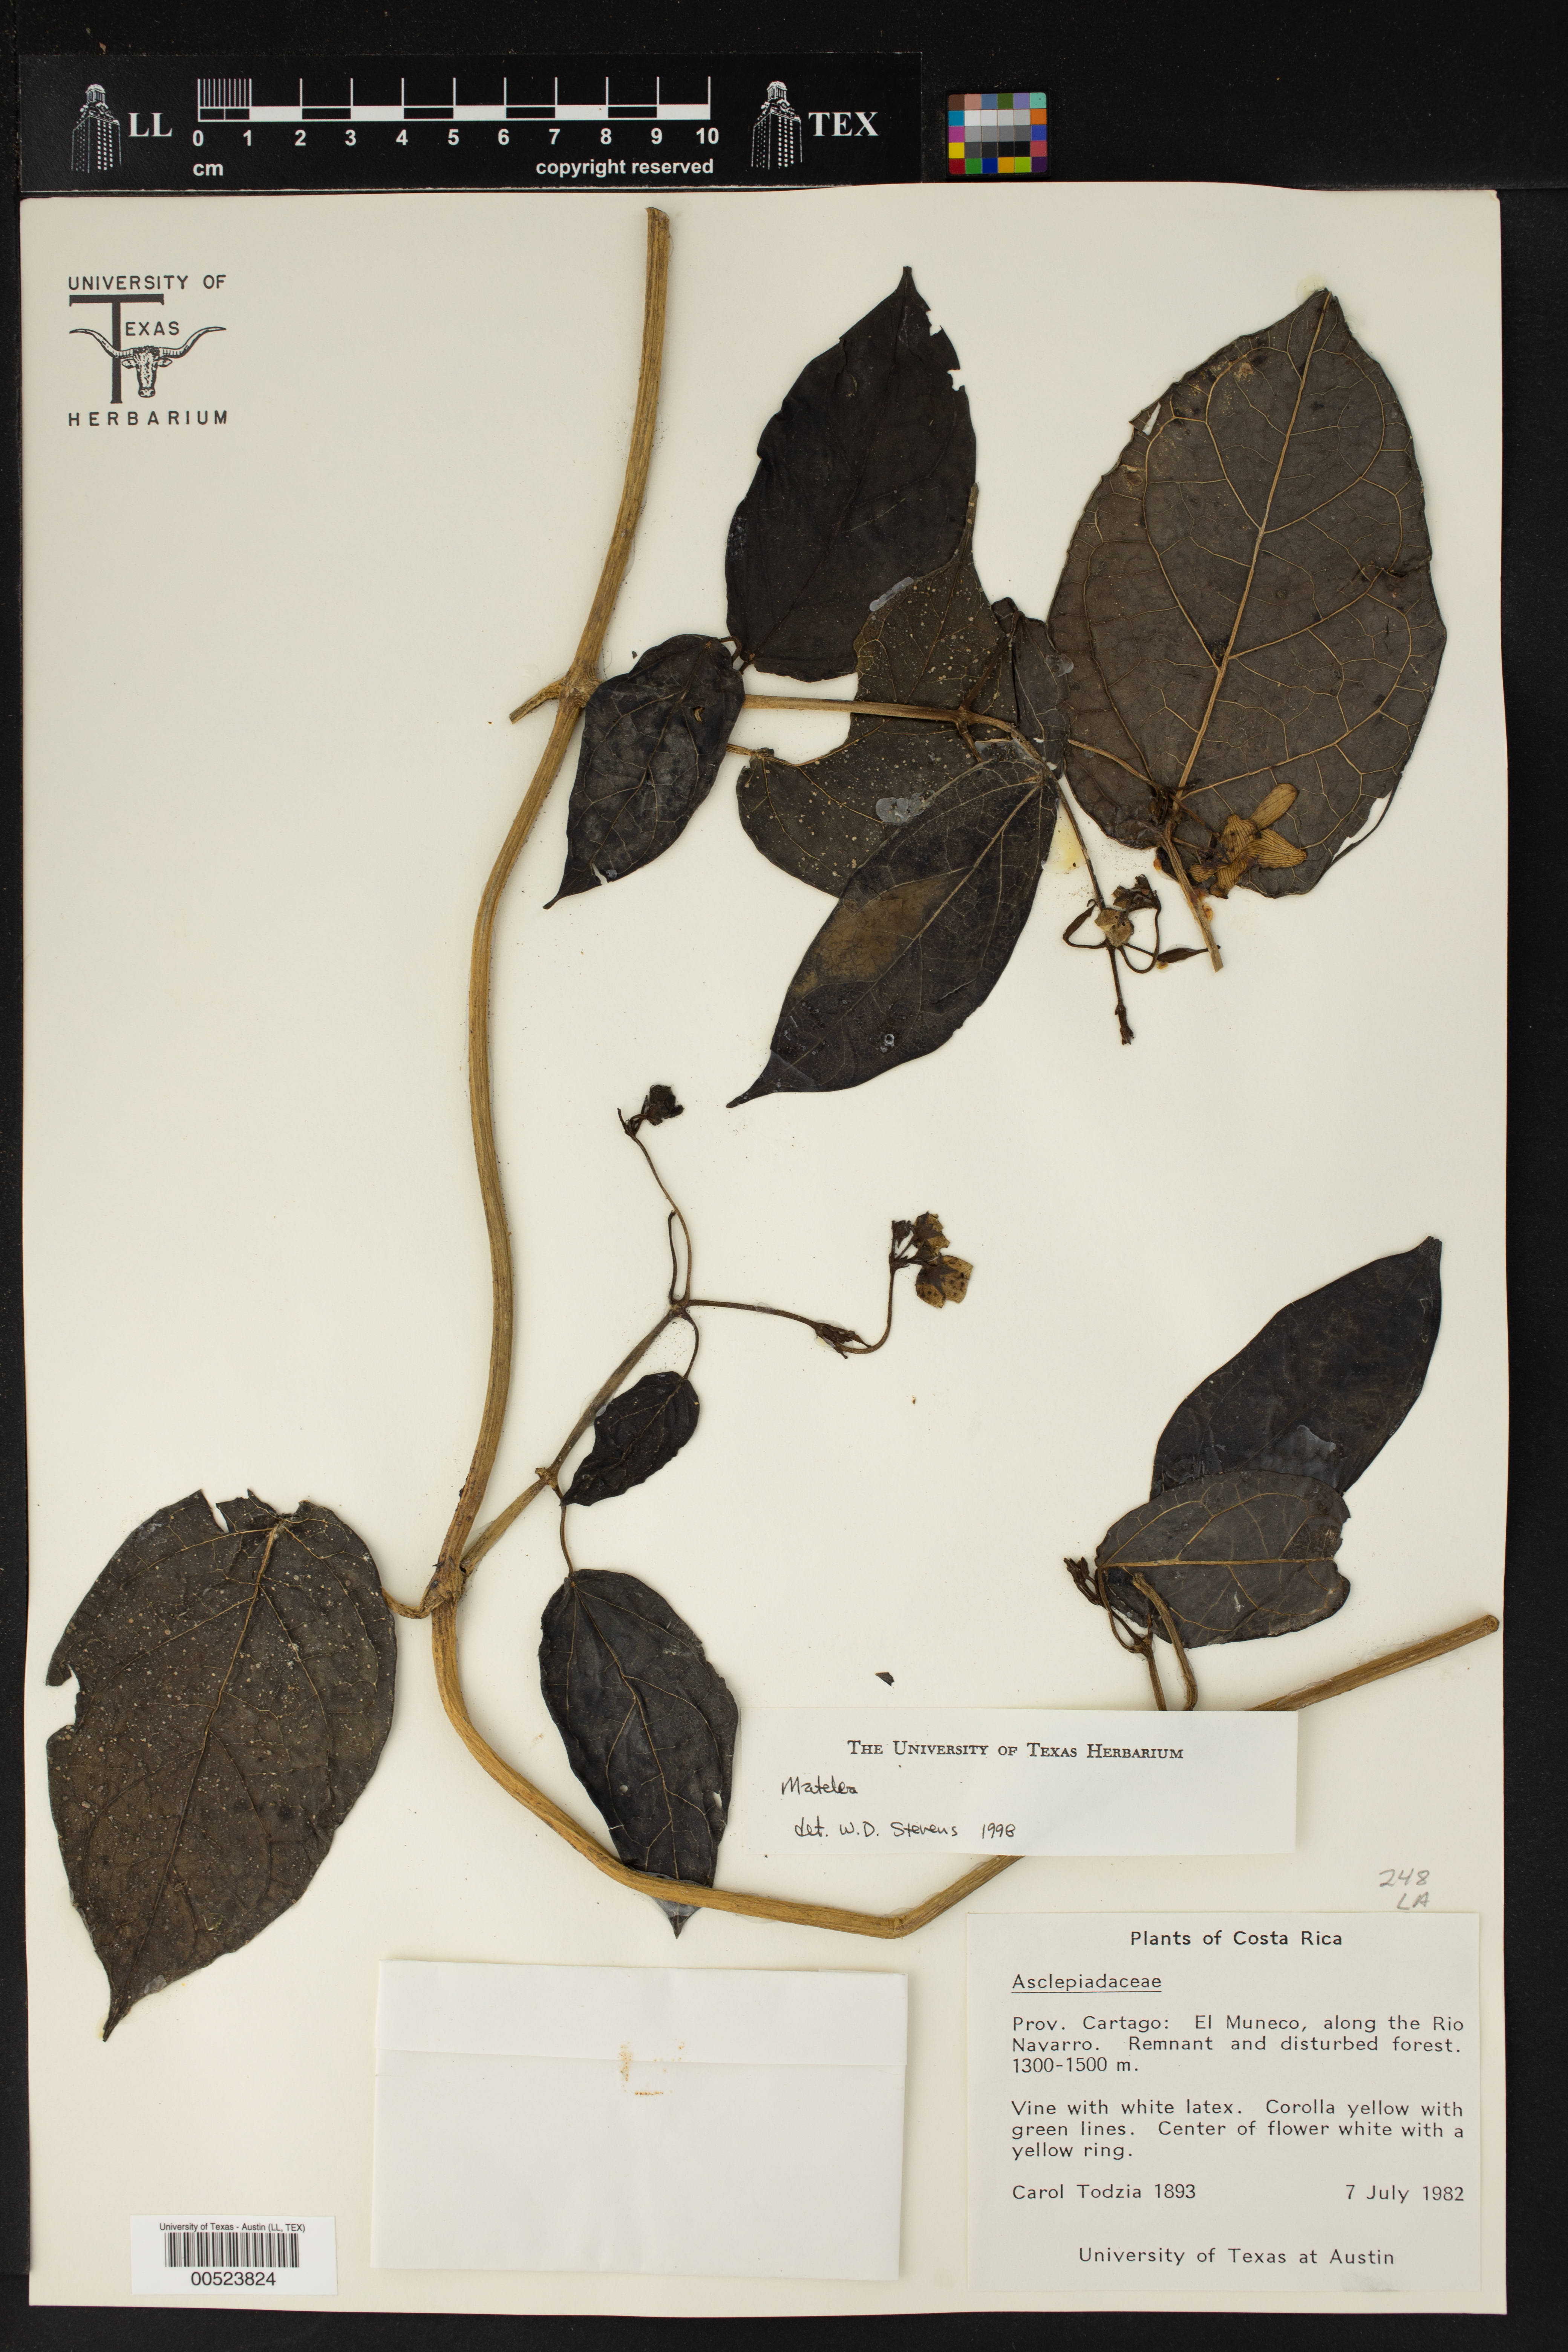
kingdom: Plantae
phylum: Tracheophyta
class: Magnoliopsida
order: Gentianales
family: Apocynaceae
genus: Matelea
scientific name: Matelea
